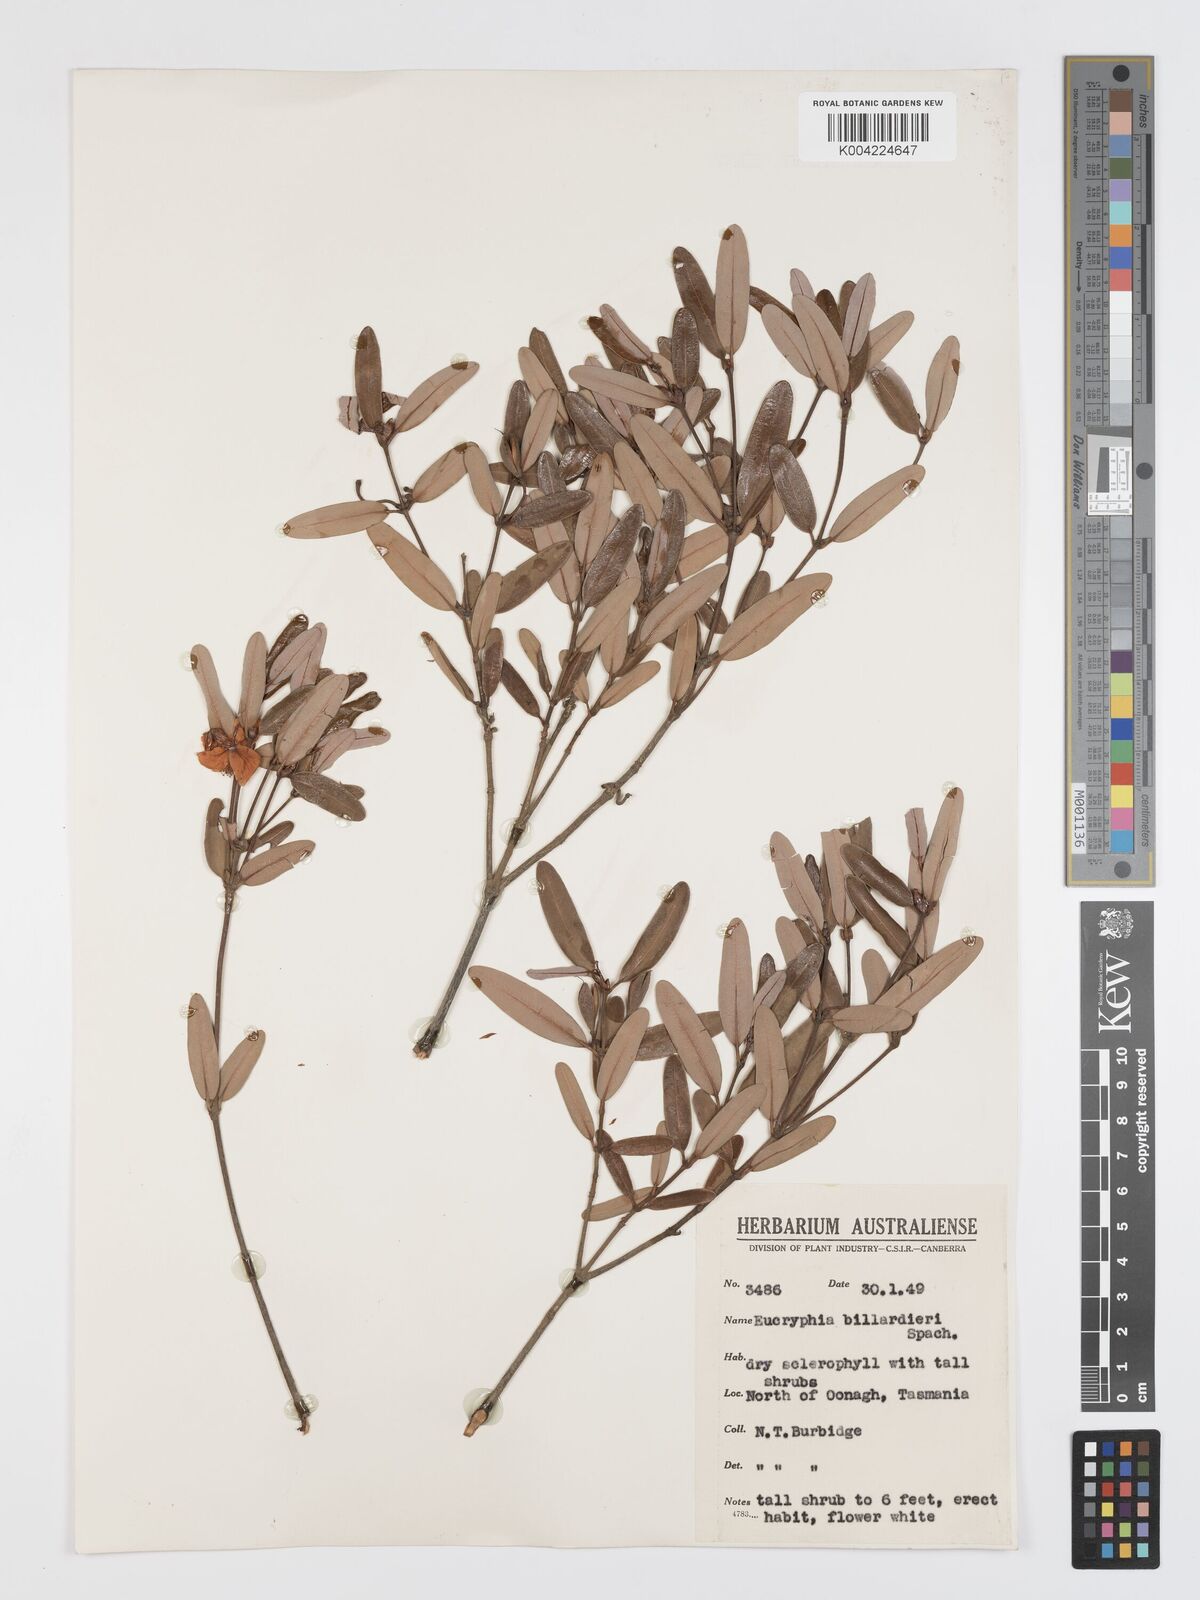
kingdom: Plantae
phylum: Tracheophyta
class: Magnoliopsida
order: Oxalidales
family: Cunoniaceae
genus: Eucryphia
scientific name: Eucryphia lucida
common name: Leatherwood
